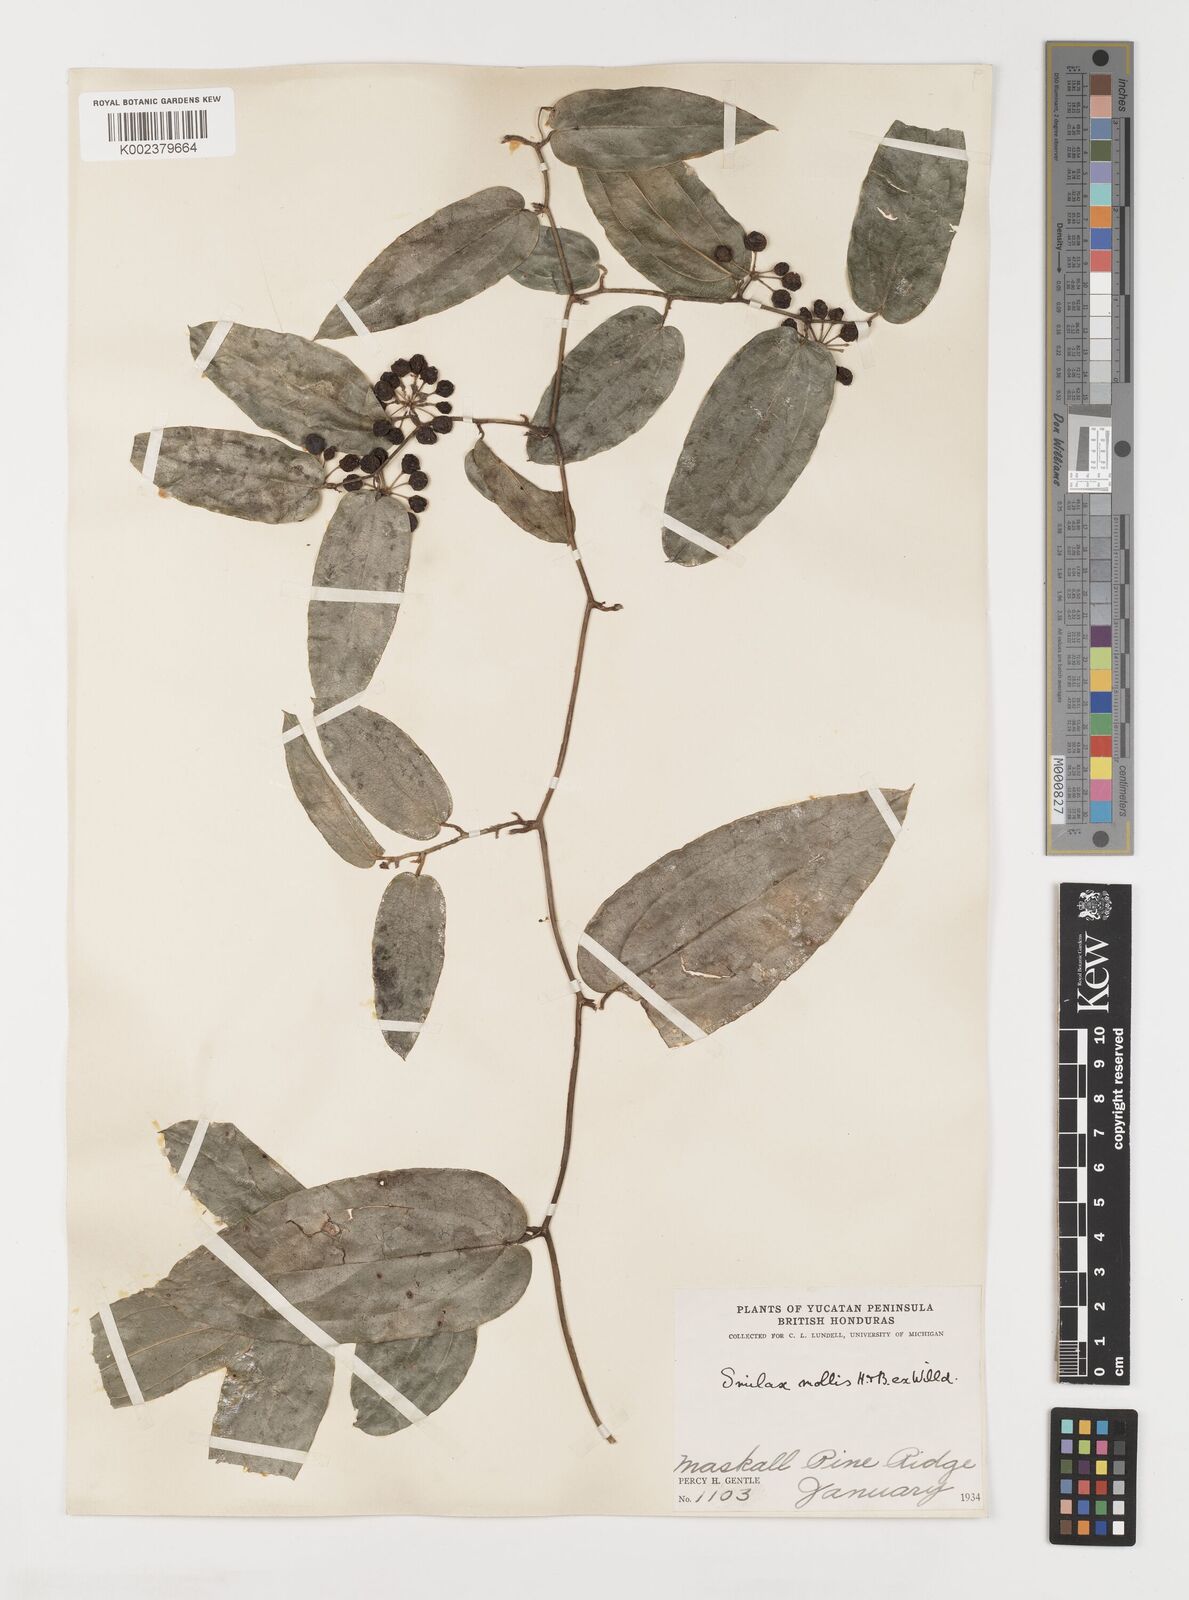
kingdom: Plantae
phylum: Tracheophyta
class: Liliopsida
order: Liliales
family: Smilacaceae
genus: Smilax
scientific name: Smilax mollis
